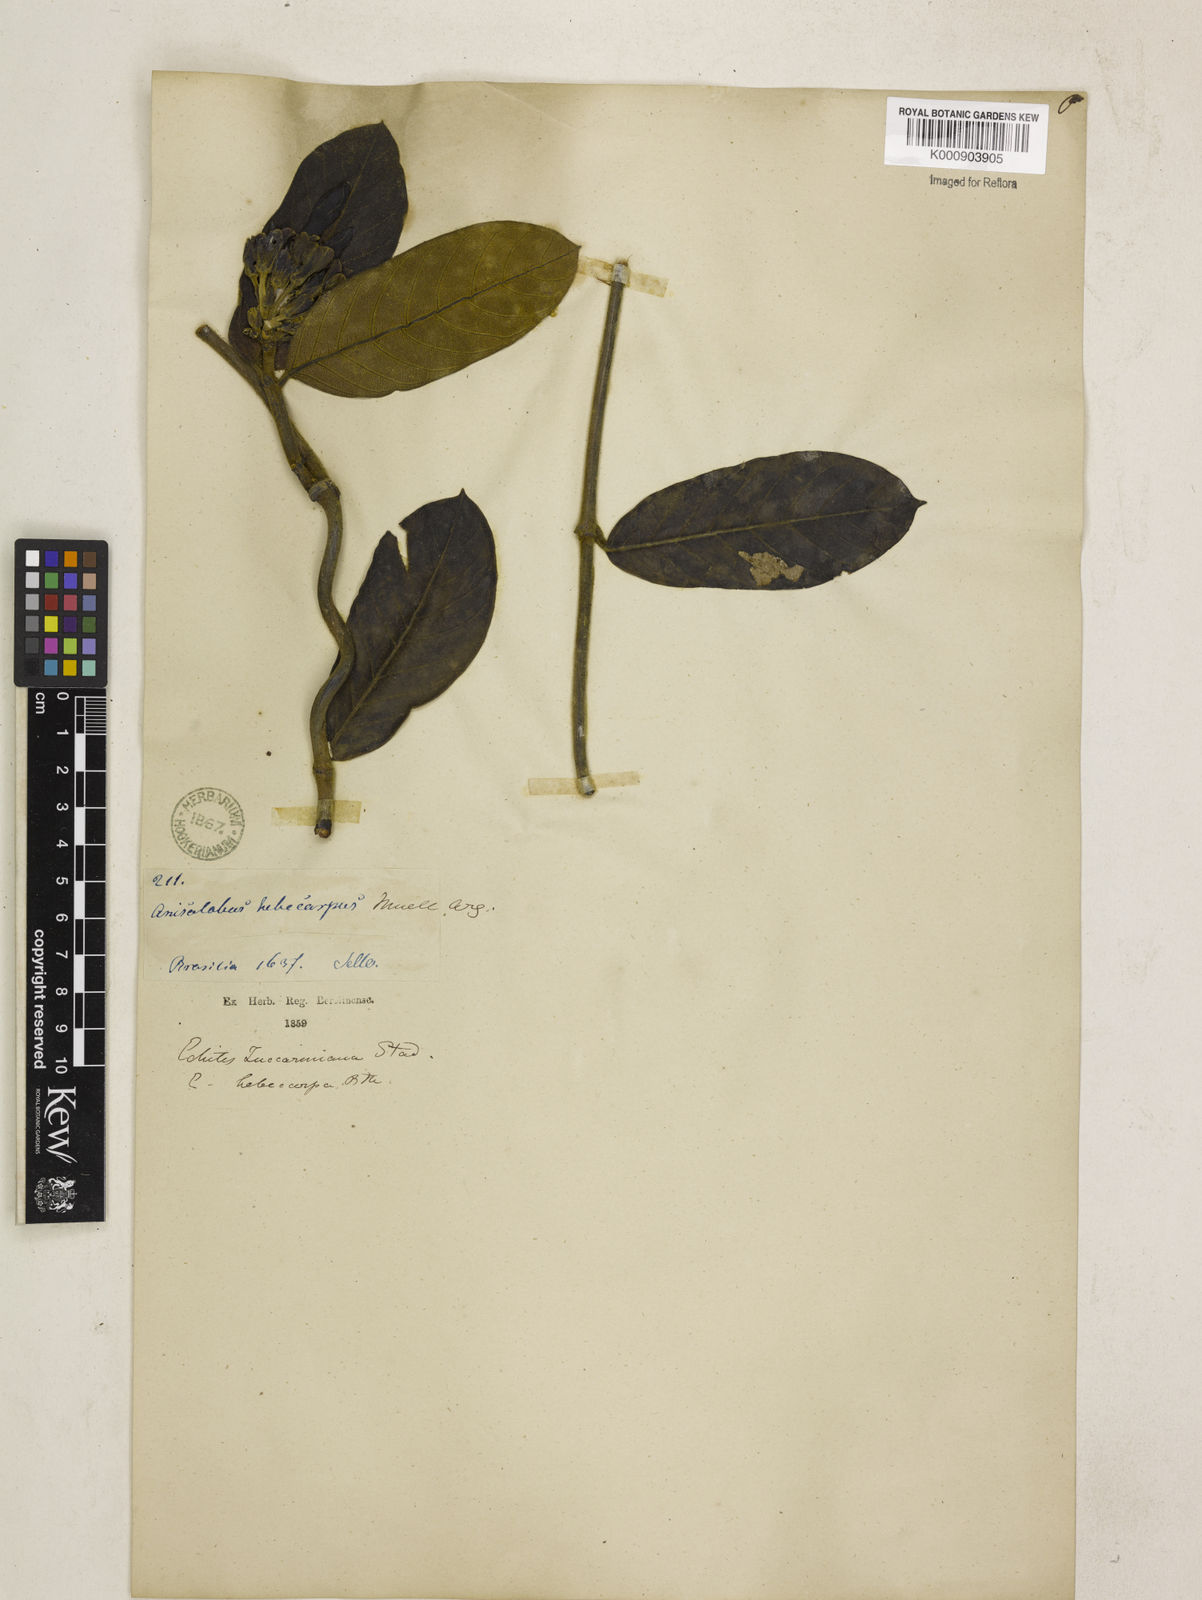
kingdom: Plantae
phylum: Tracheophyta
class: Magnoliopsida
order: Gentianales
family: Apocynaceae
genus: Odontadenia
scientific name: Odontadenia lutea
